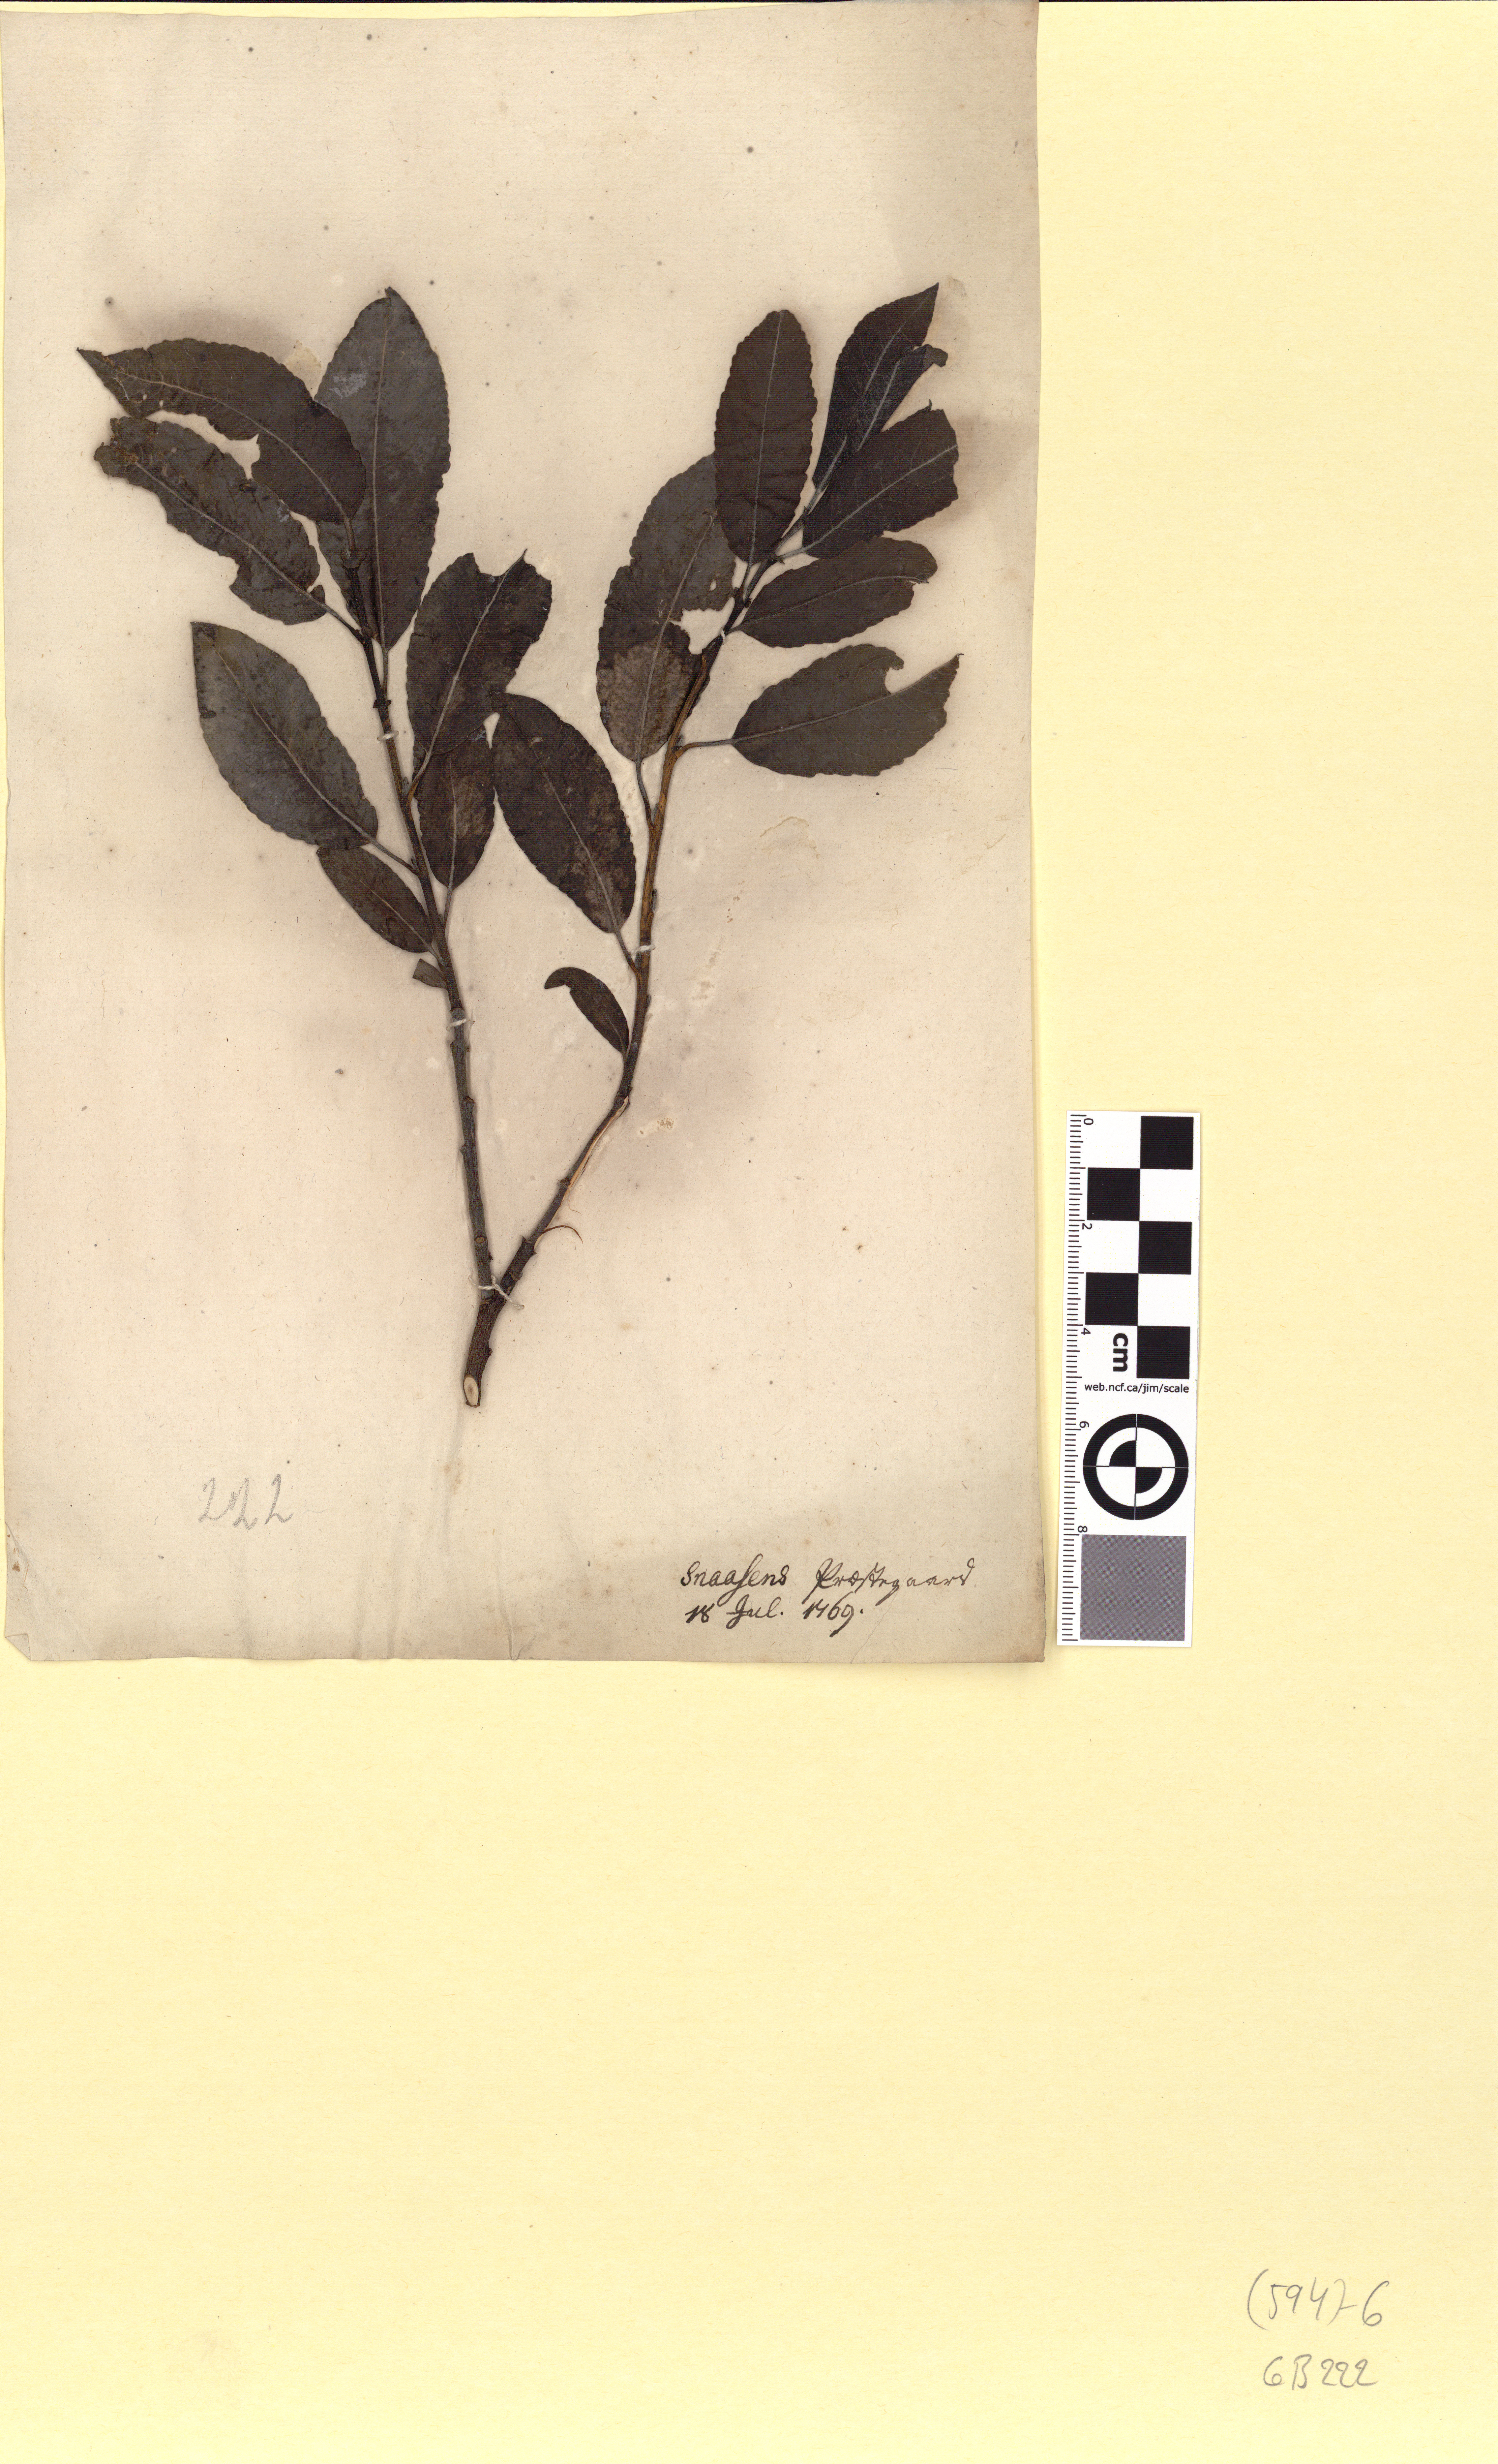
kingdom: Plantae
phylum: Tracheophyta
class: Magnoliopsida
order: Malpighiales
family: Salicaceae
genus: Salix
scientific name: Salix myrsinifolia
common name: Dark-leaved willow
